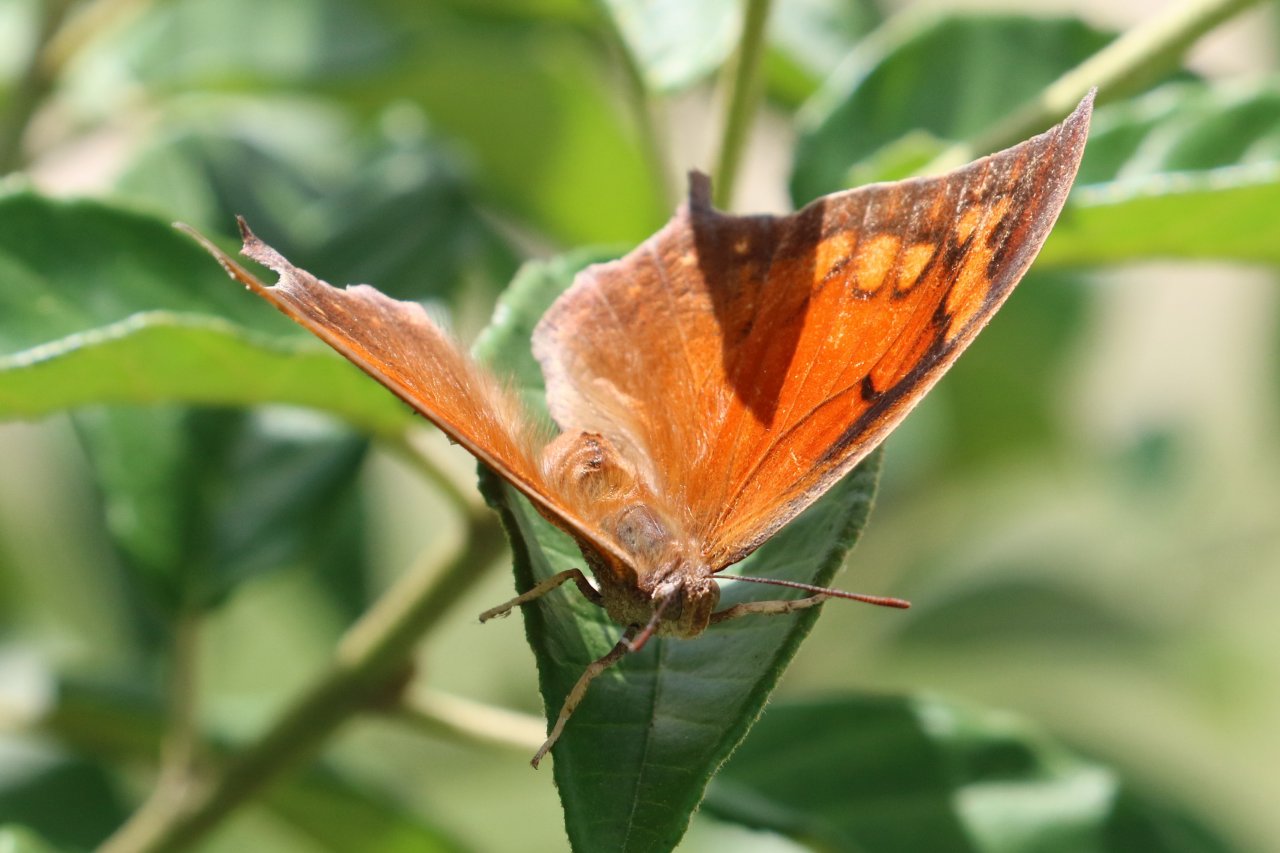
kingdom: Animalia
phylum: Arthropoda
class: Insecta
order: Lepidoptera
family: Nymphalidae
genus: Anaea
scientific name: Anaea aidea
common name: Tropical Leafwing
